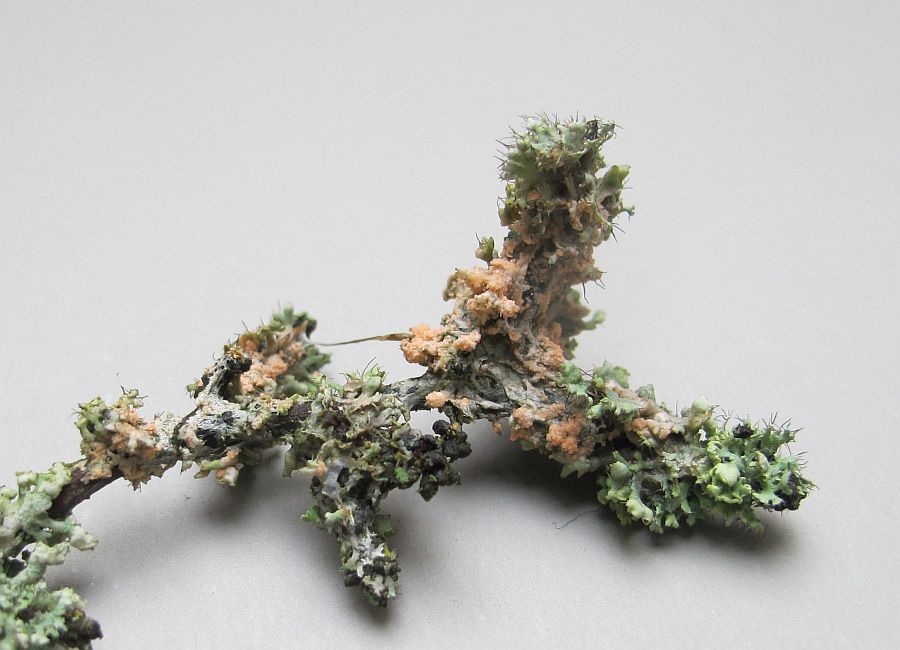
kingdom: Fungi
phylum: Basidiomycota
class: Agaricomycetes
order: Corticiales
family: Corticiaceae
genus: Erythricium
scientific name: Erythricium aurantiacum
